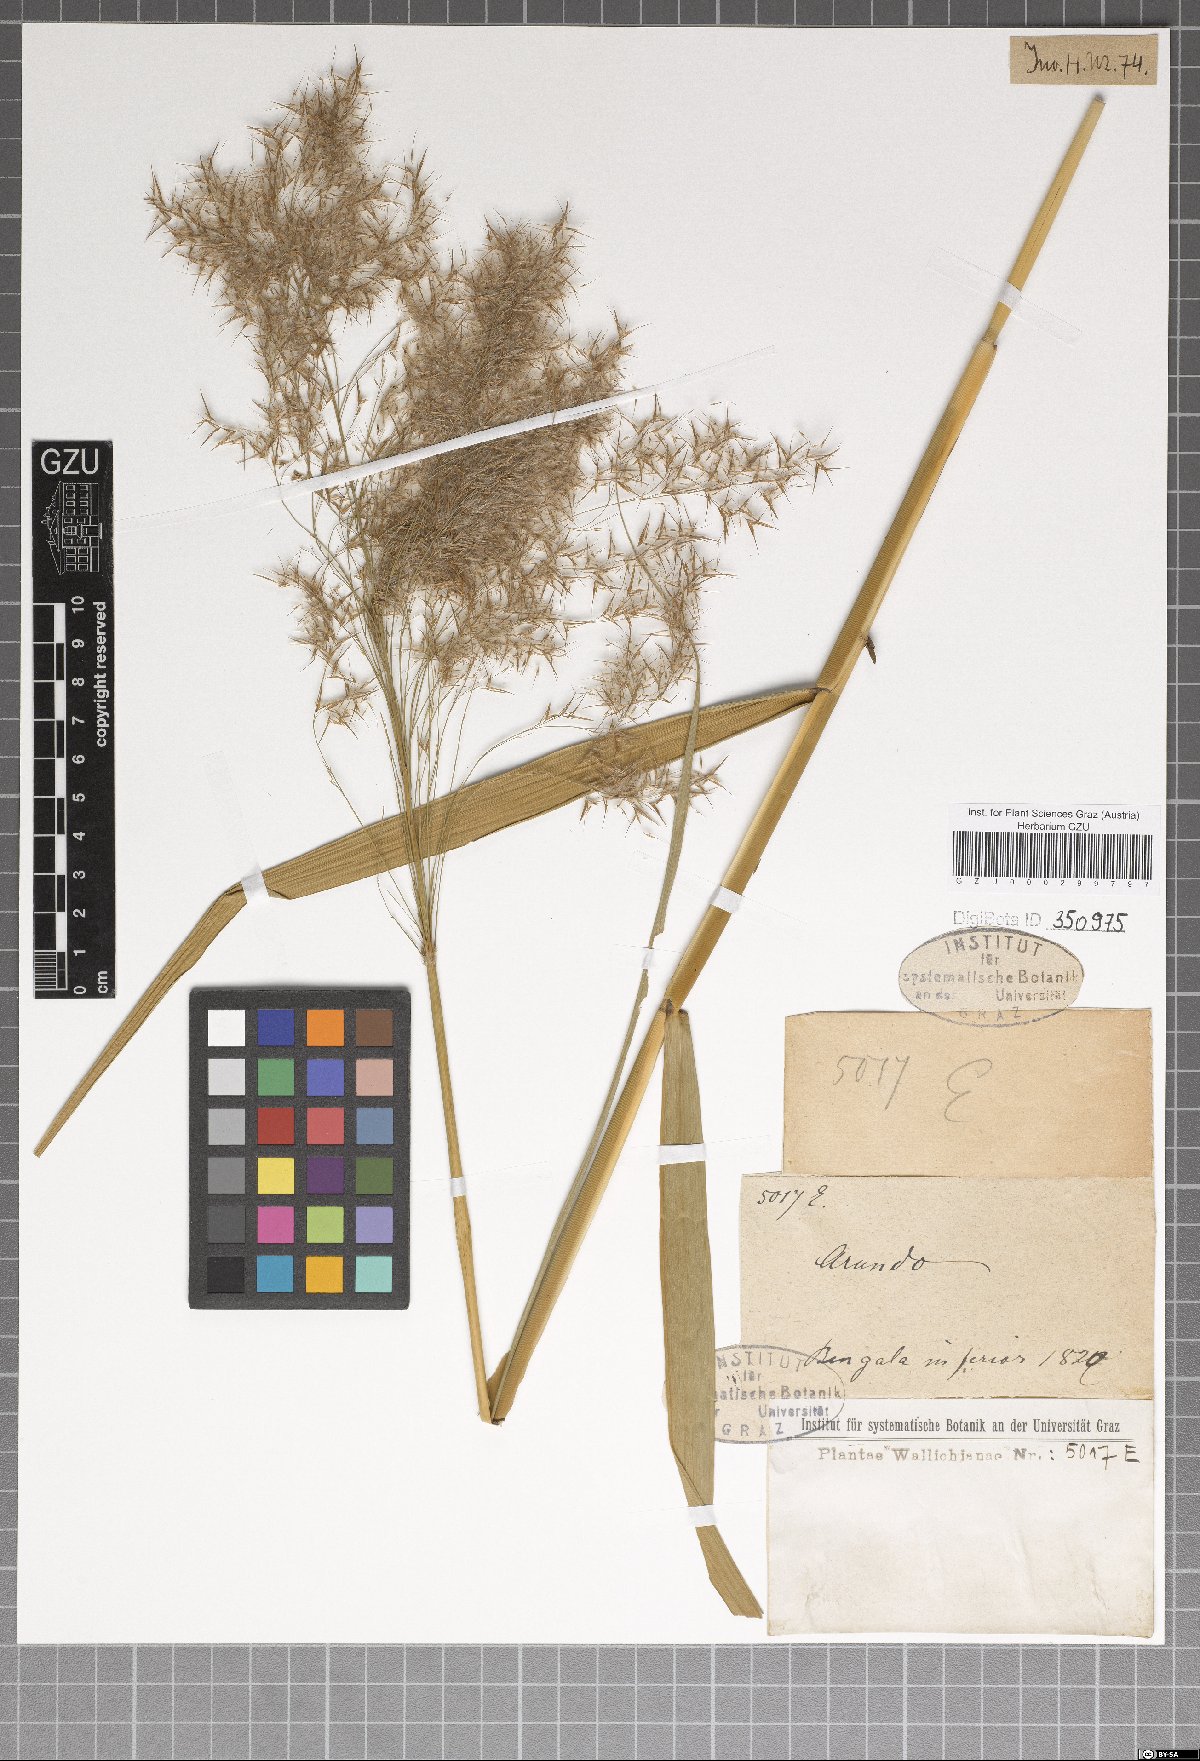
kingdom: Plantae
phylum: Tracheophyta
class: Liliopsida
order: Poales
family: Poaceae
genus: Arundo
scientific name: Arundo
